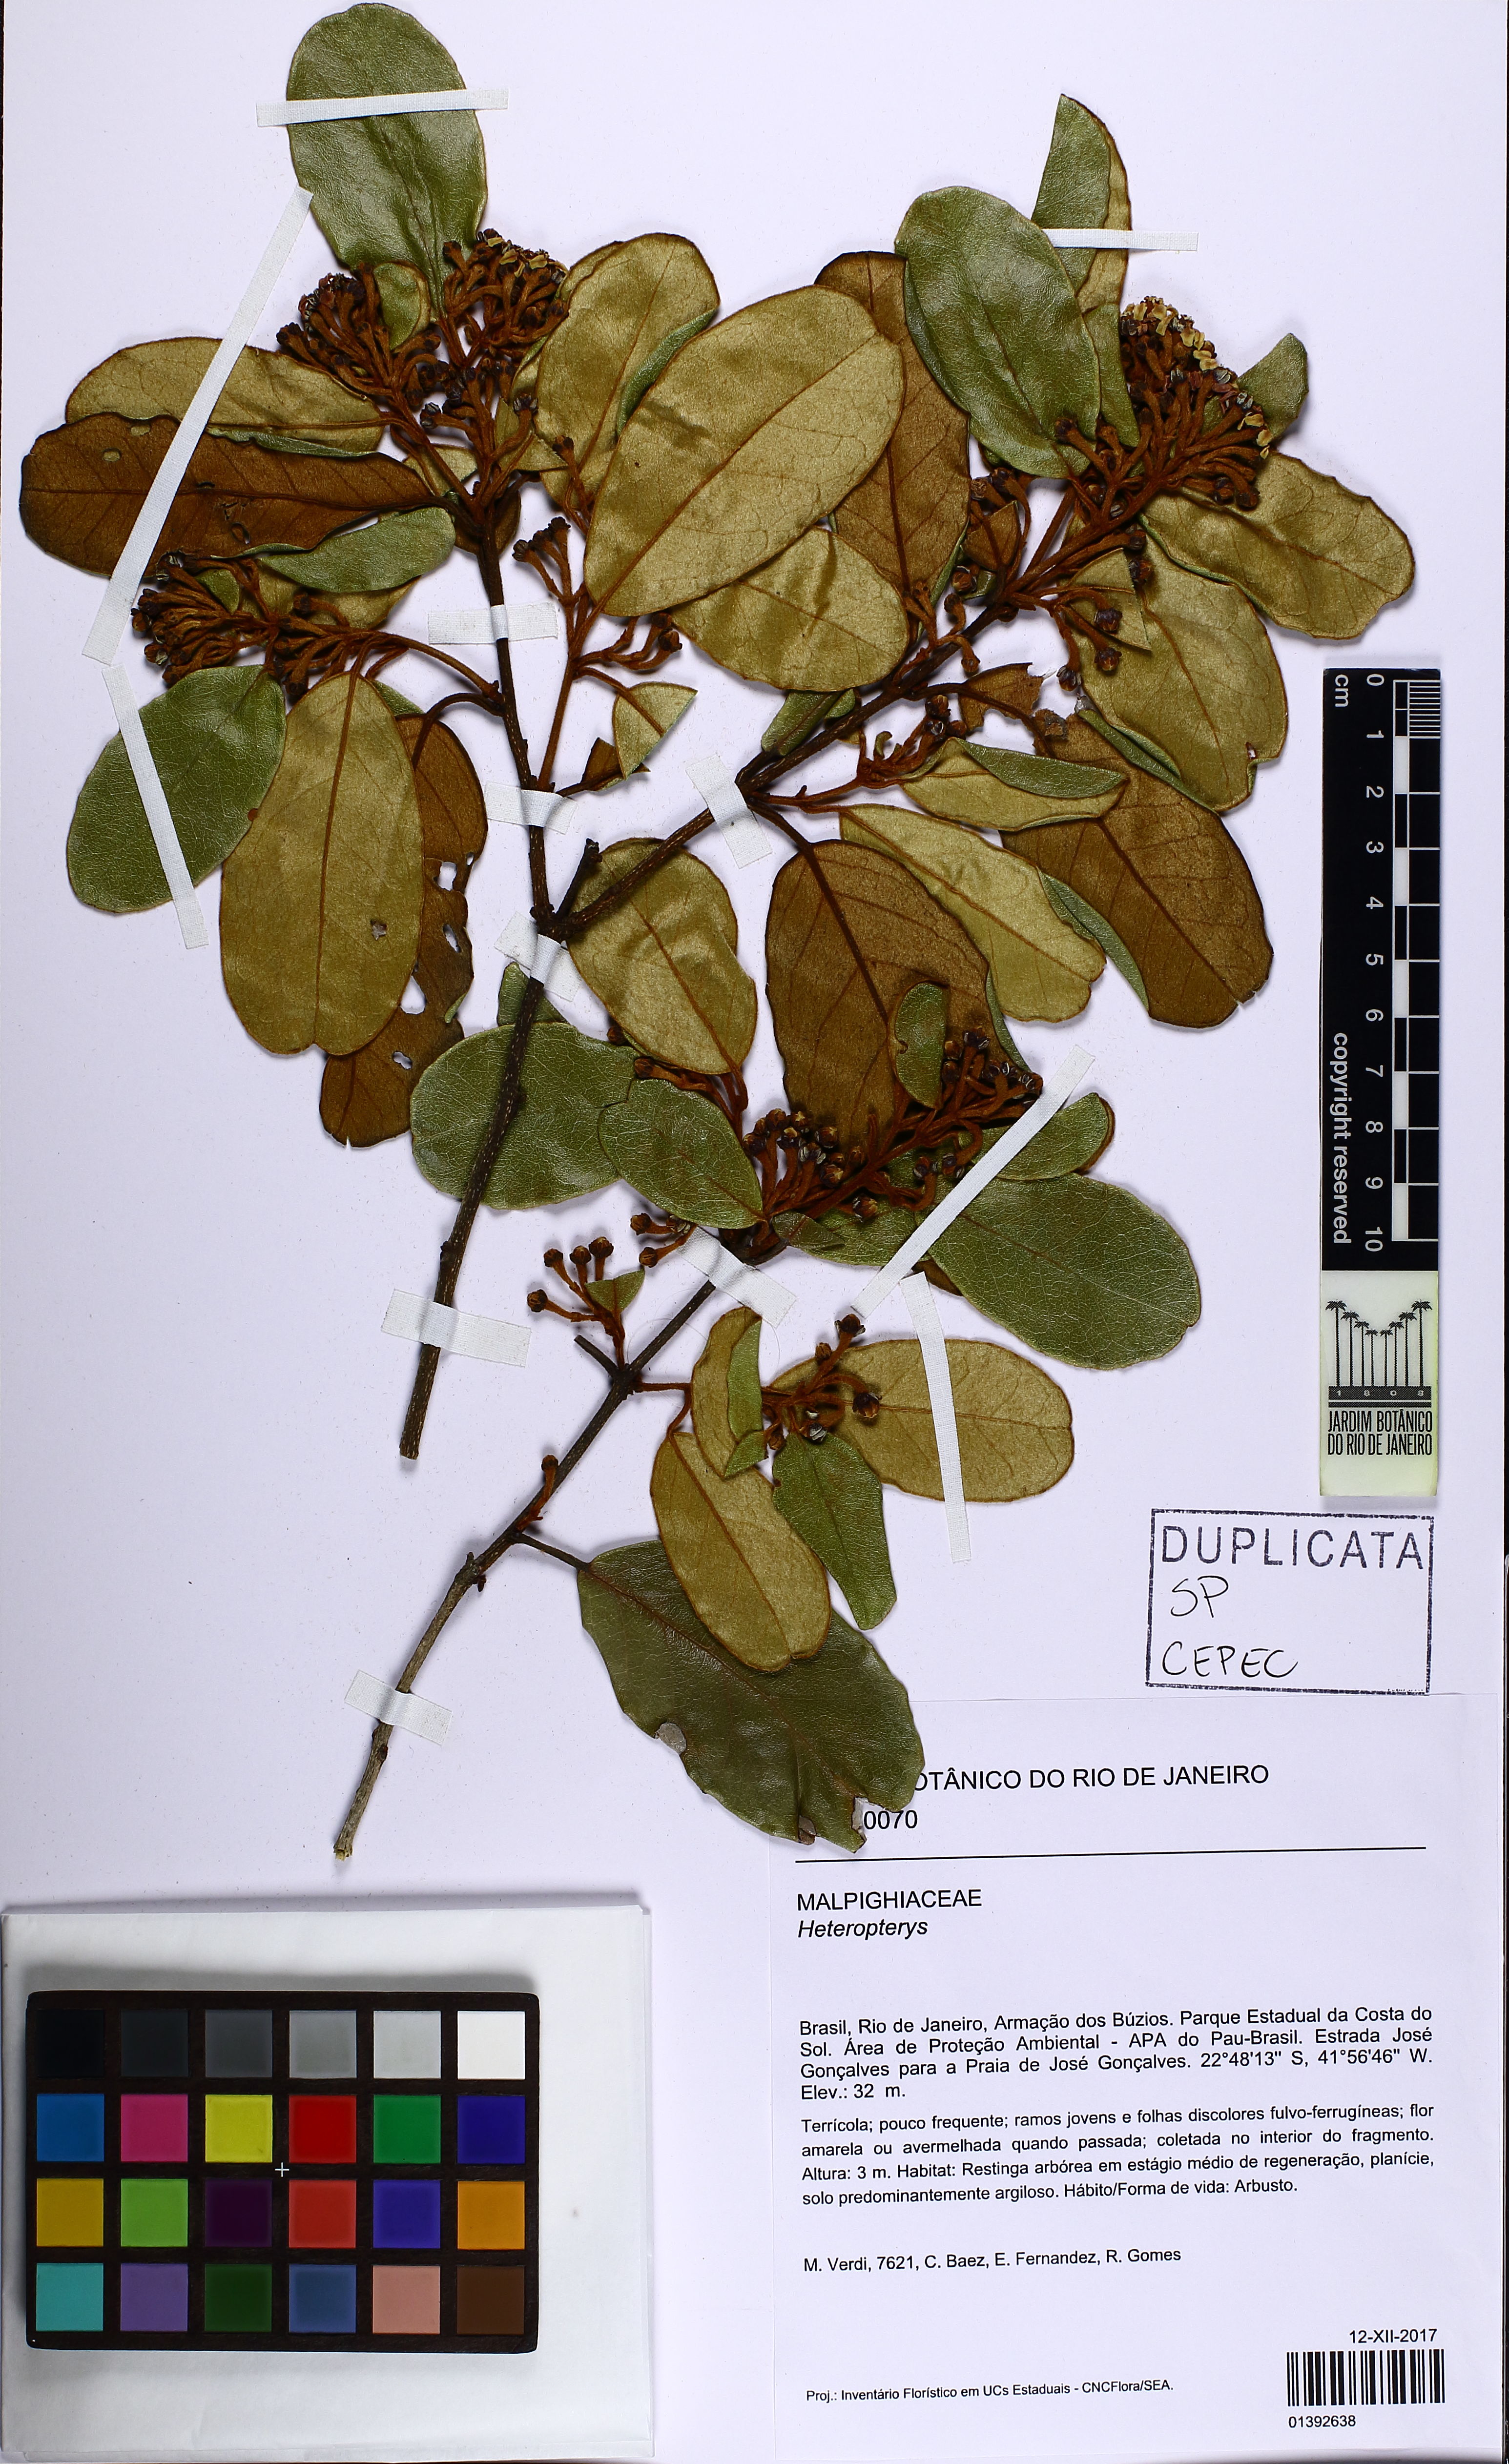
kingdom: Plantae
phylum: Tracheophyta
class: Magnoliopsida
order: Malpighiales
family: Malpighiaceae
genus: Heteropterys
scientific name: Heteropterys
